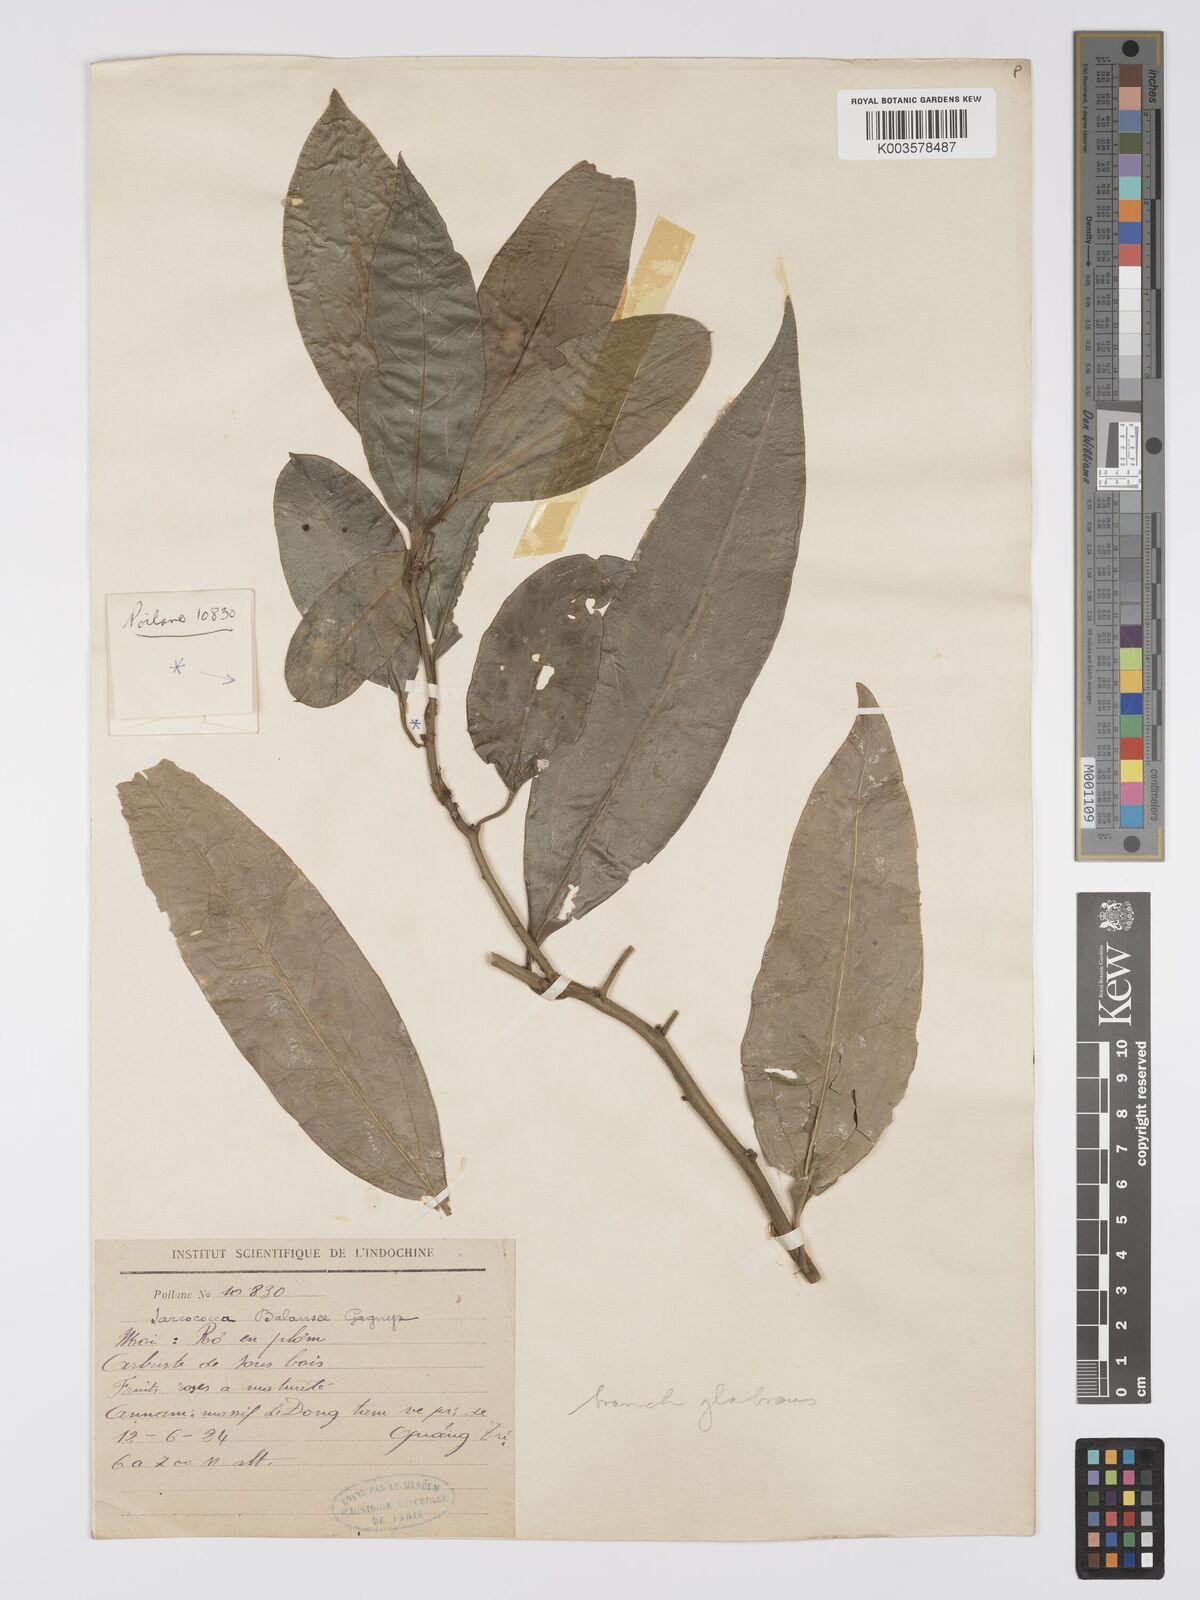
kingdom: Plantae
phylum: Tracheophyta
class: Magnoliopsida
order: Buxales
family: Buxaceae
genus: Sarcococca
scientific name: Sarcococca balansae
